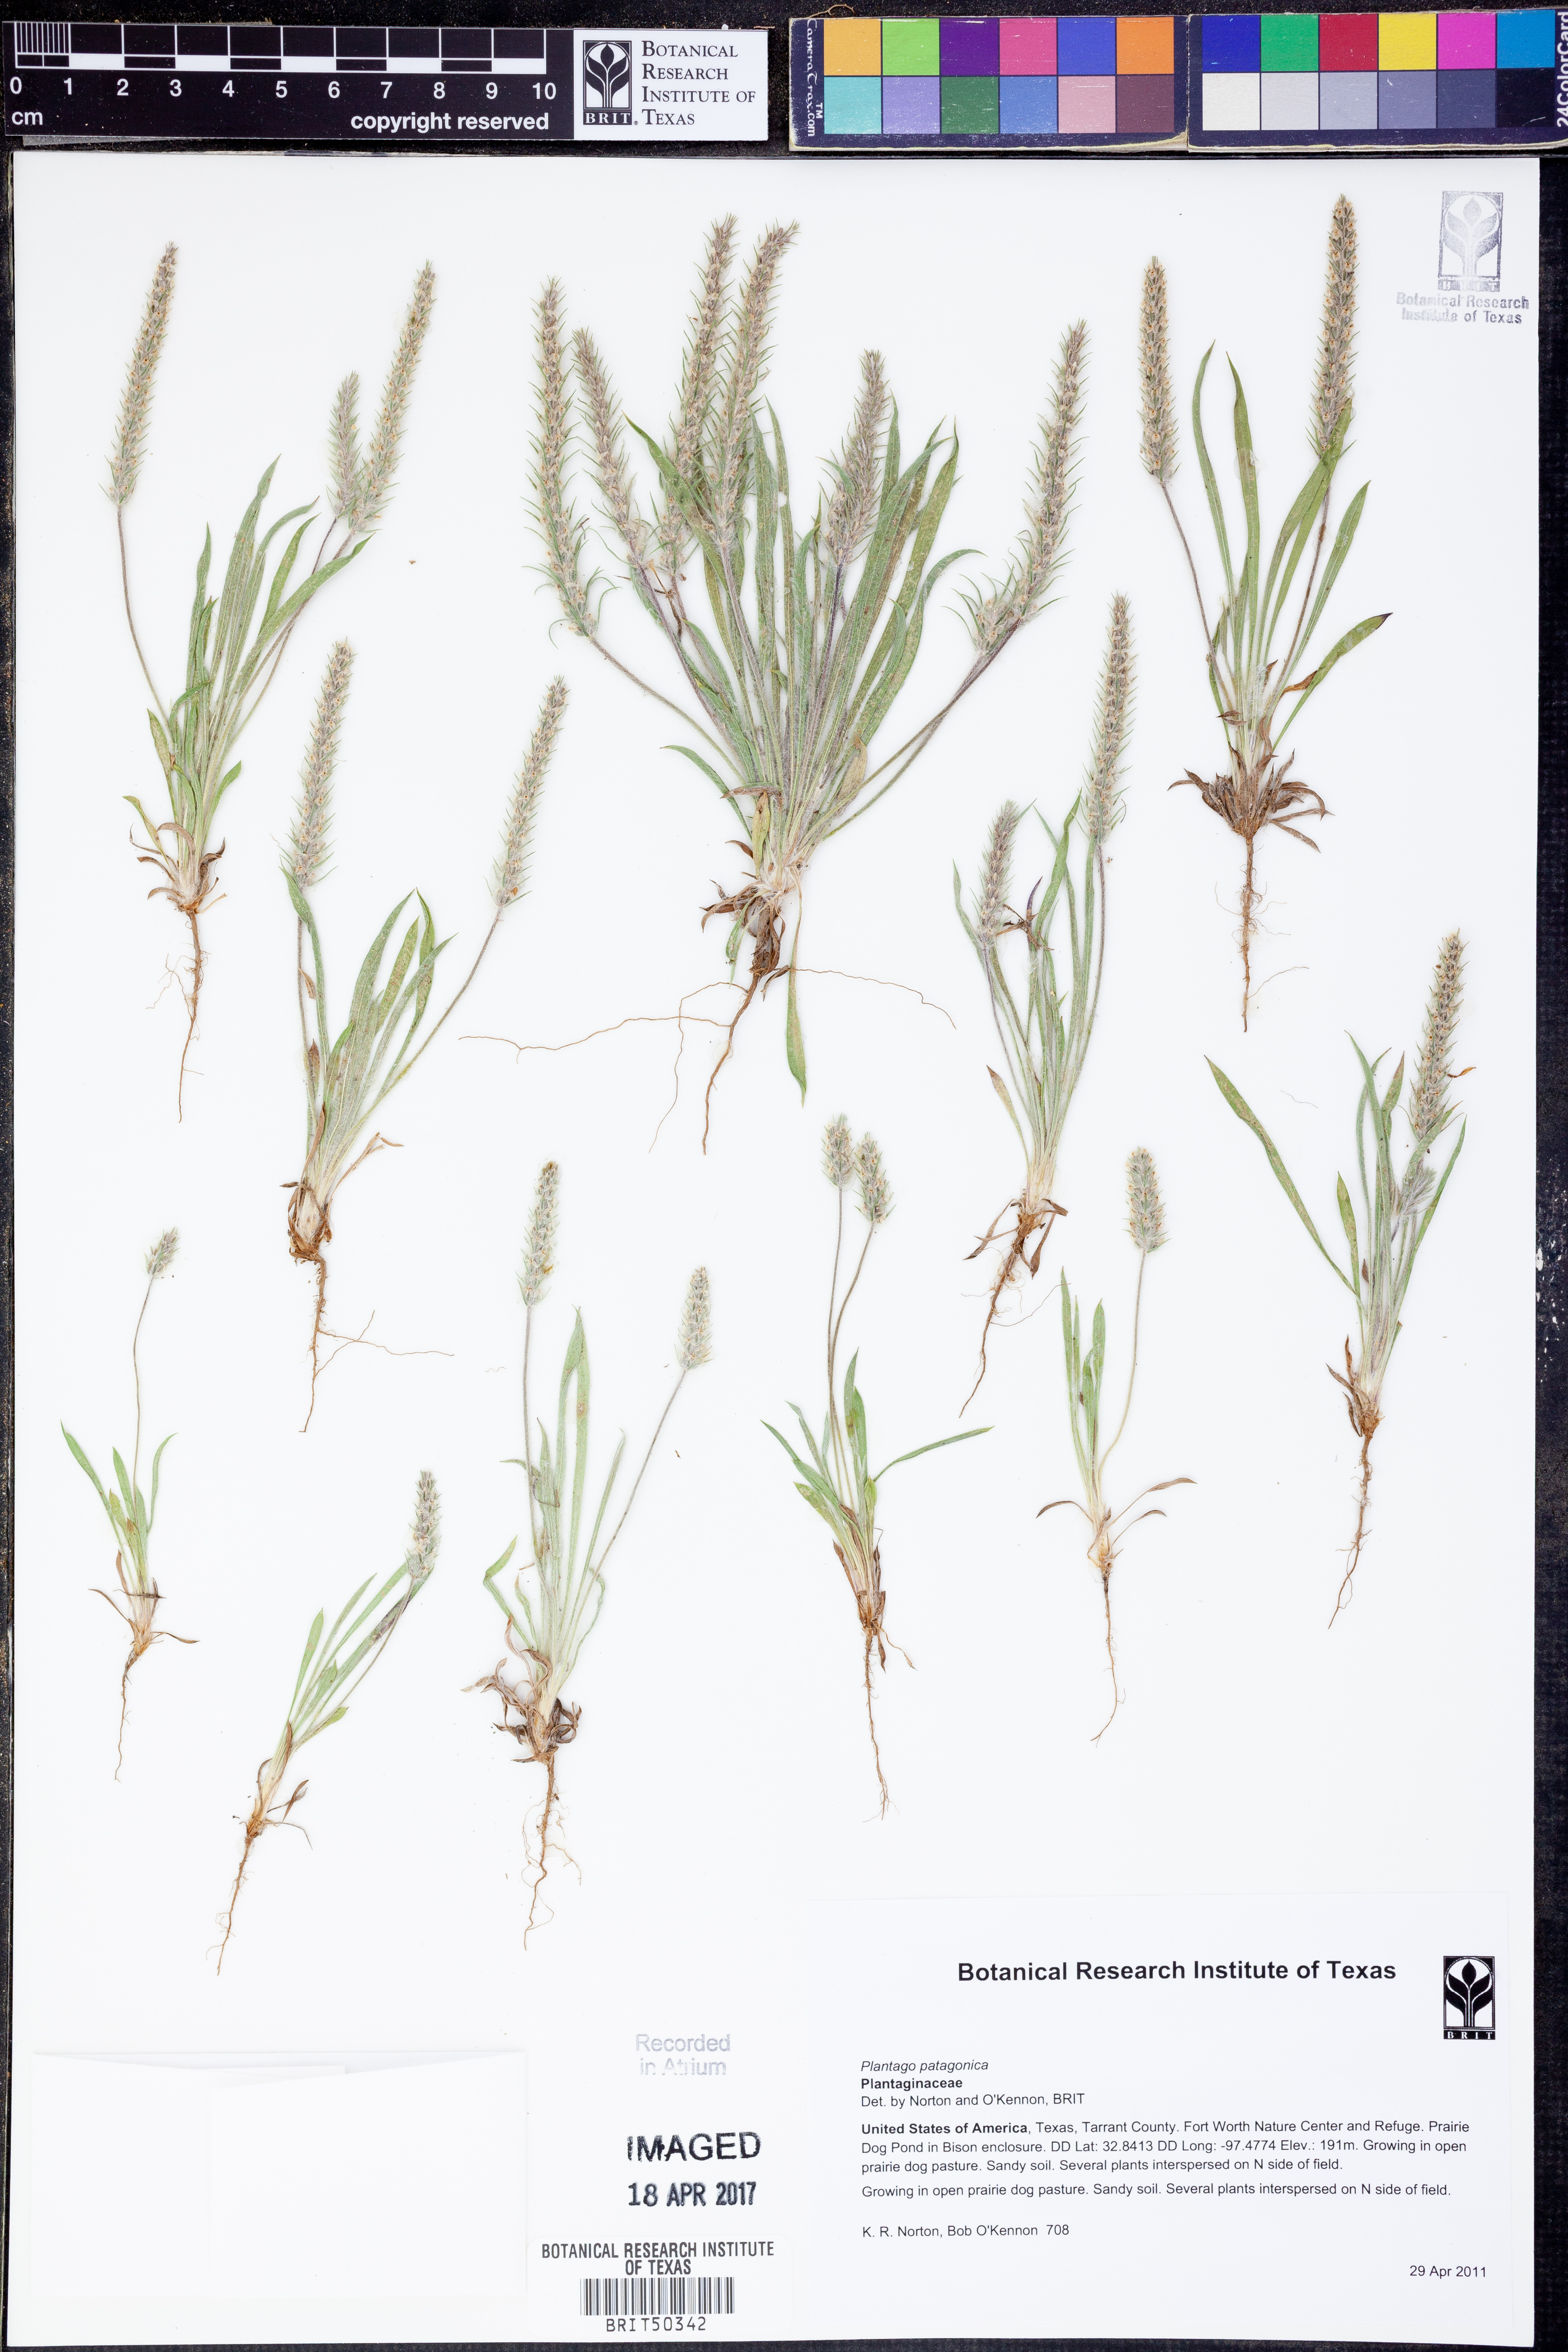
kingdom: Plantae
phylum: Tracheophyta
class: Magnoliopsida
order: Lamiales
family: Plantaginaceae
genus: Plantago
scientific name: Plantago patagonica
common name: Patagonia indian-wheat
